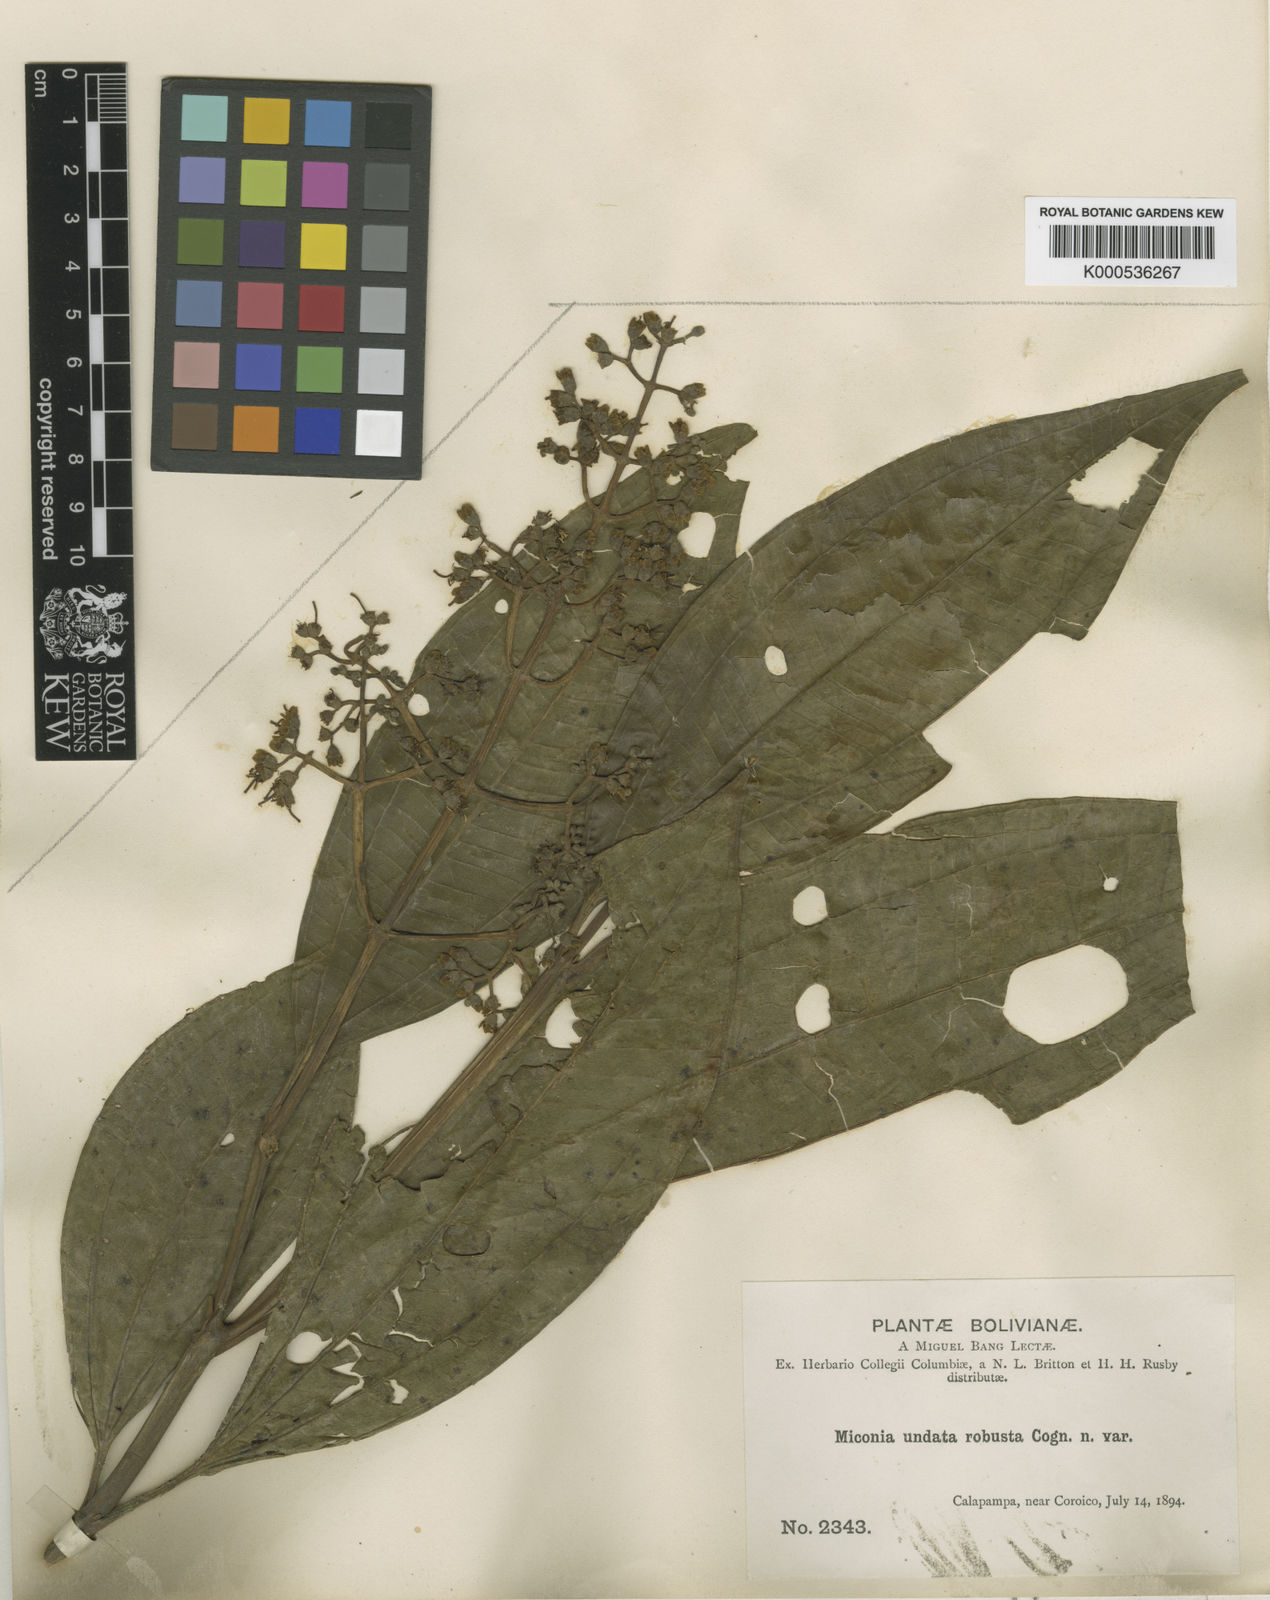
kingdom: Plantae
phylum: Tracheophyta
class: Magnoliopsida
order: Myrtales
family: Melastomataceae
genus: Miconia
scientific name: Miconia undata
